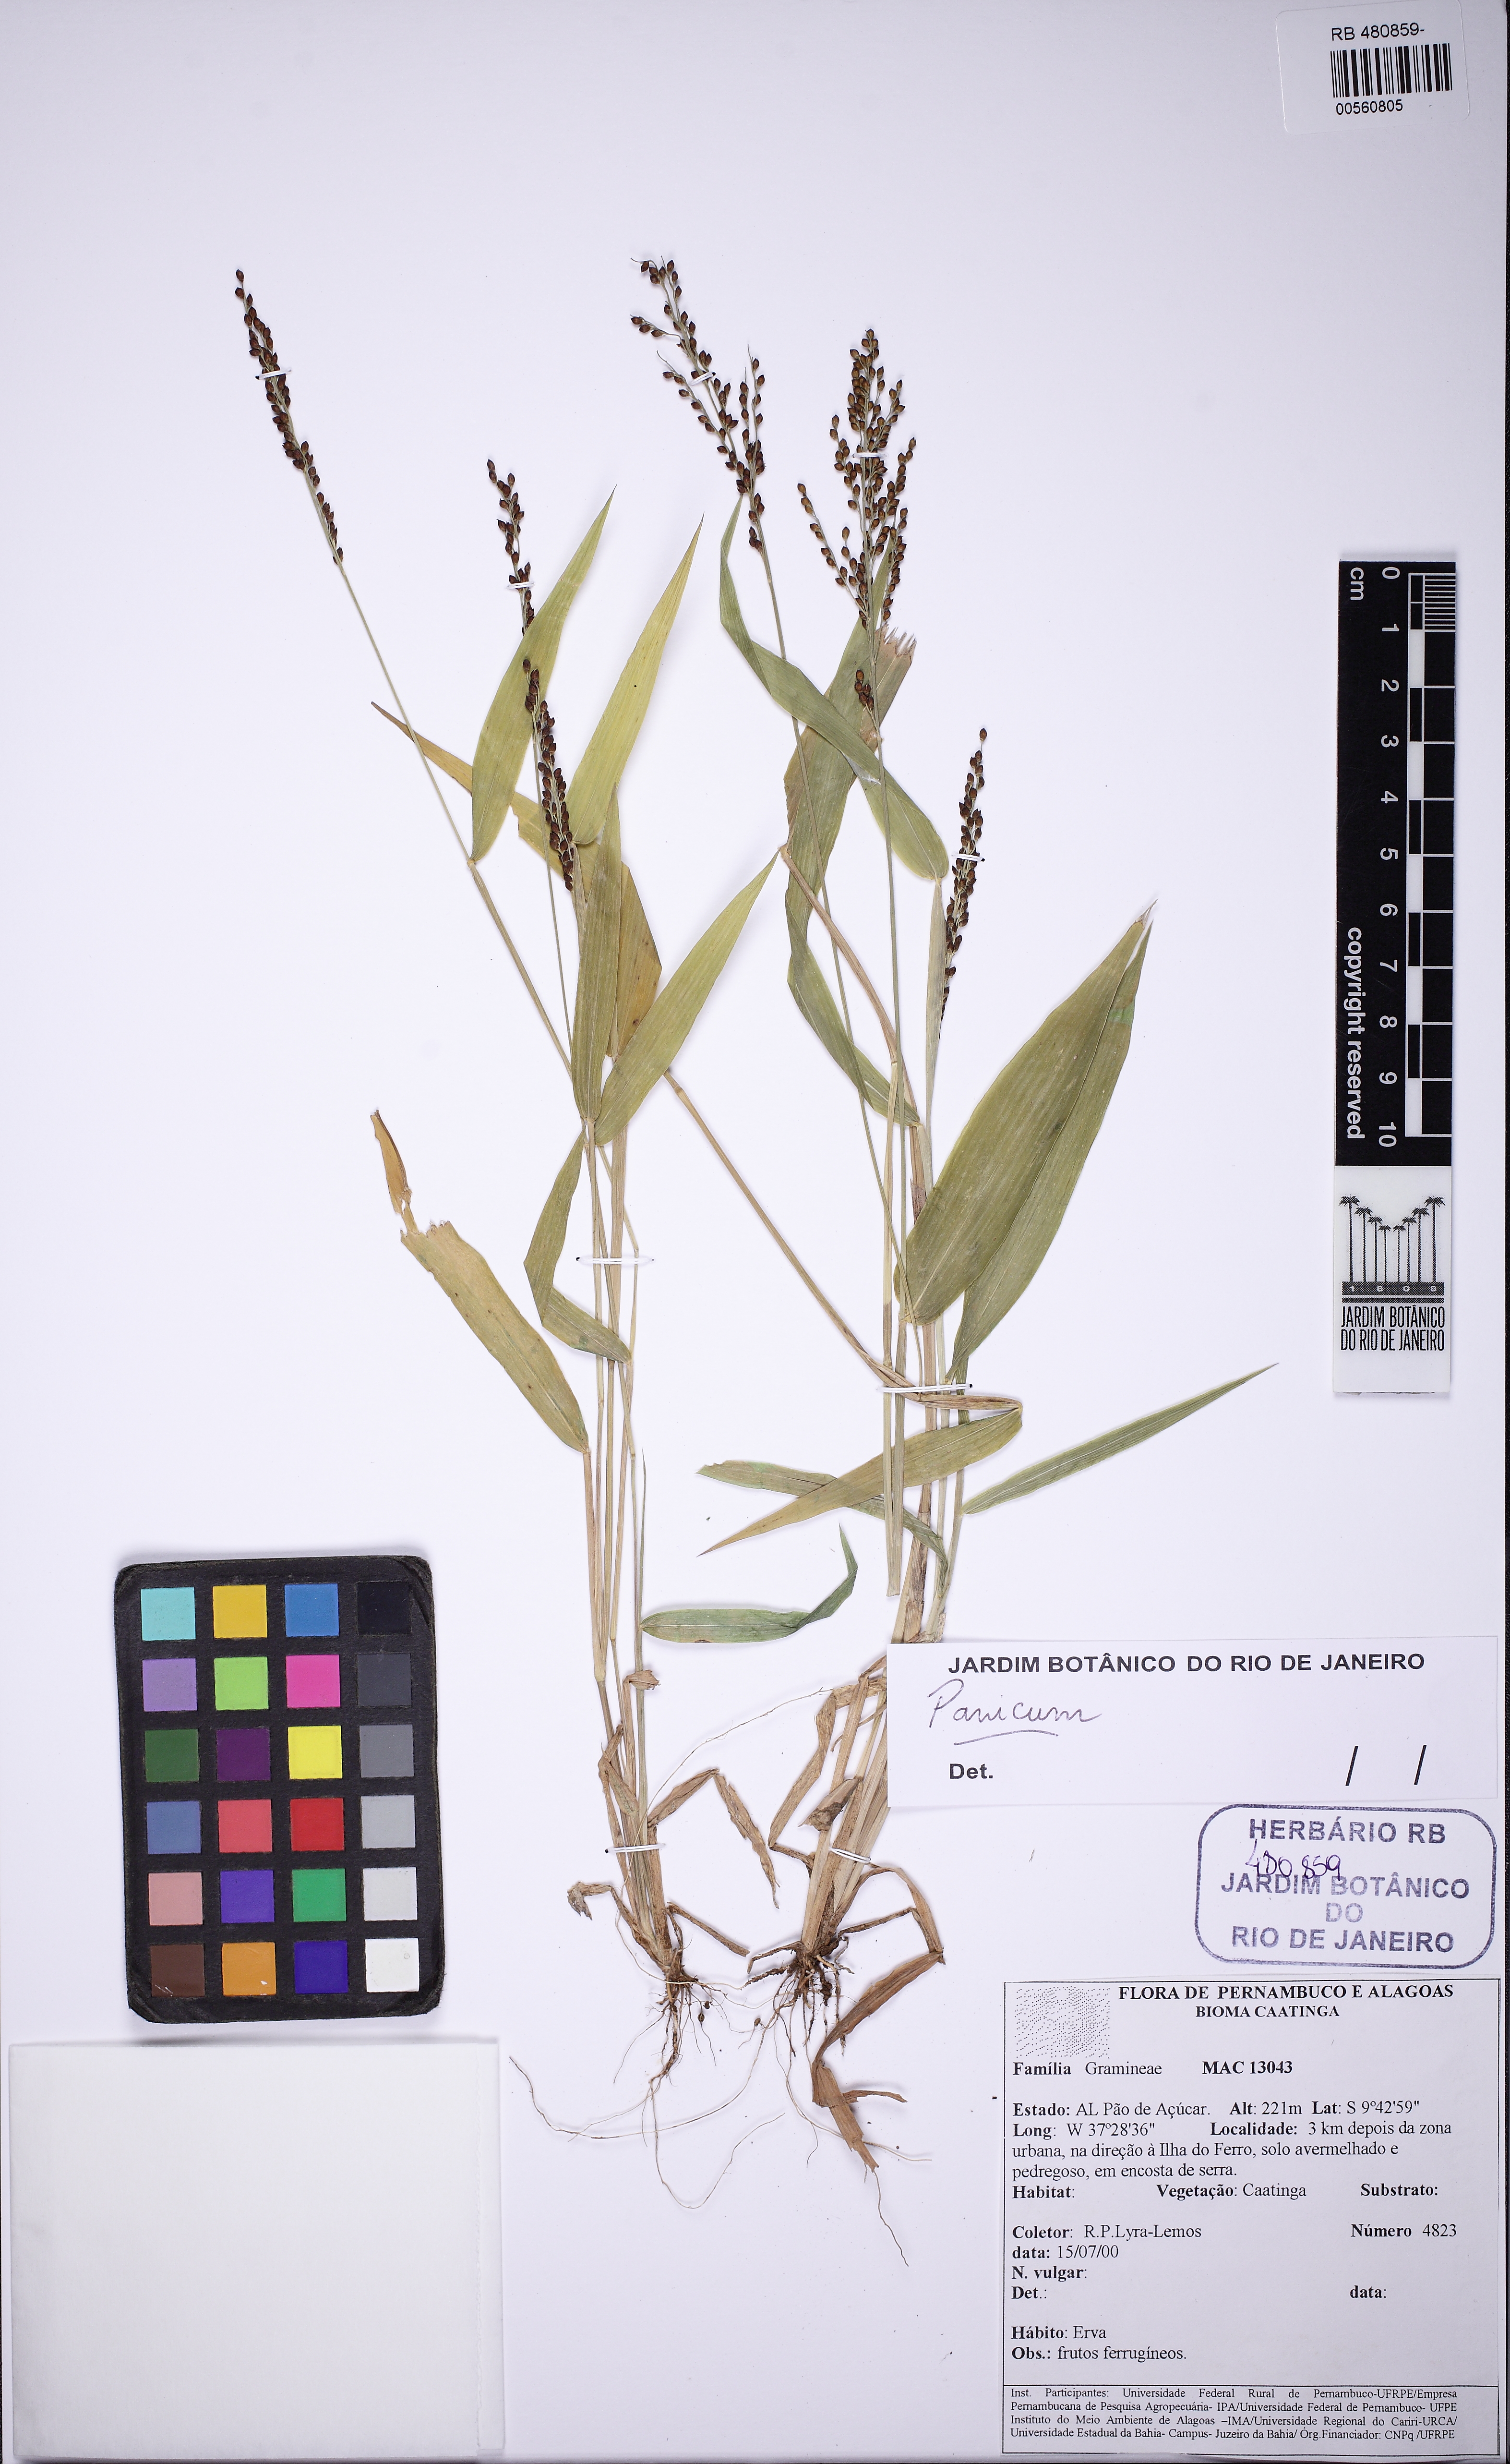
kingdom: Plantae
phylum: Tracheophyta
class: Liliopsida
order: Poales
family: Poaceae
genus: Urochloa
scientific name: Urochloa
